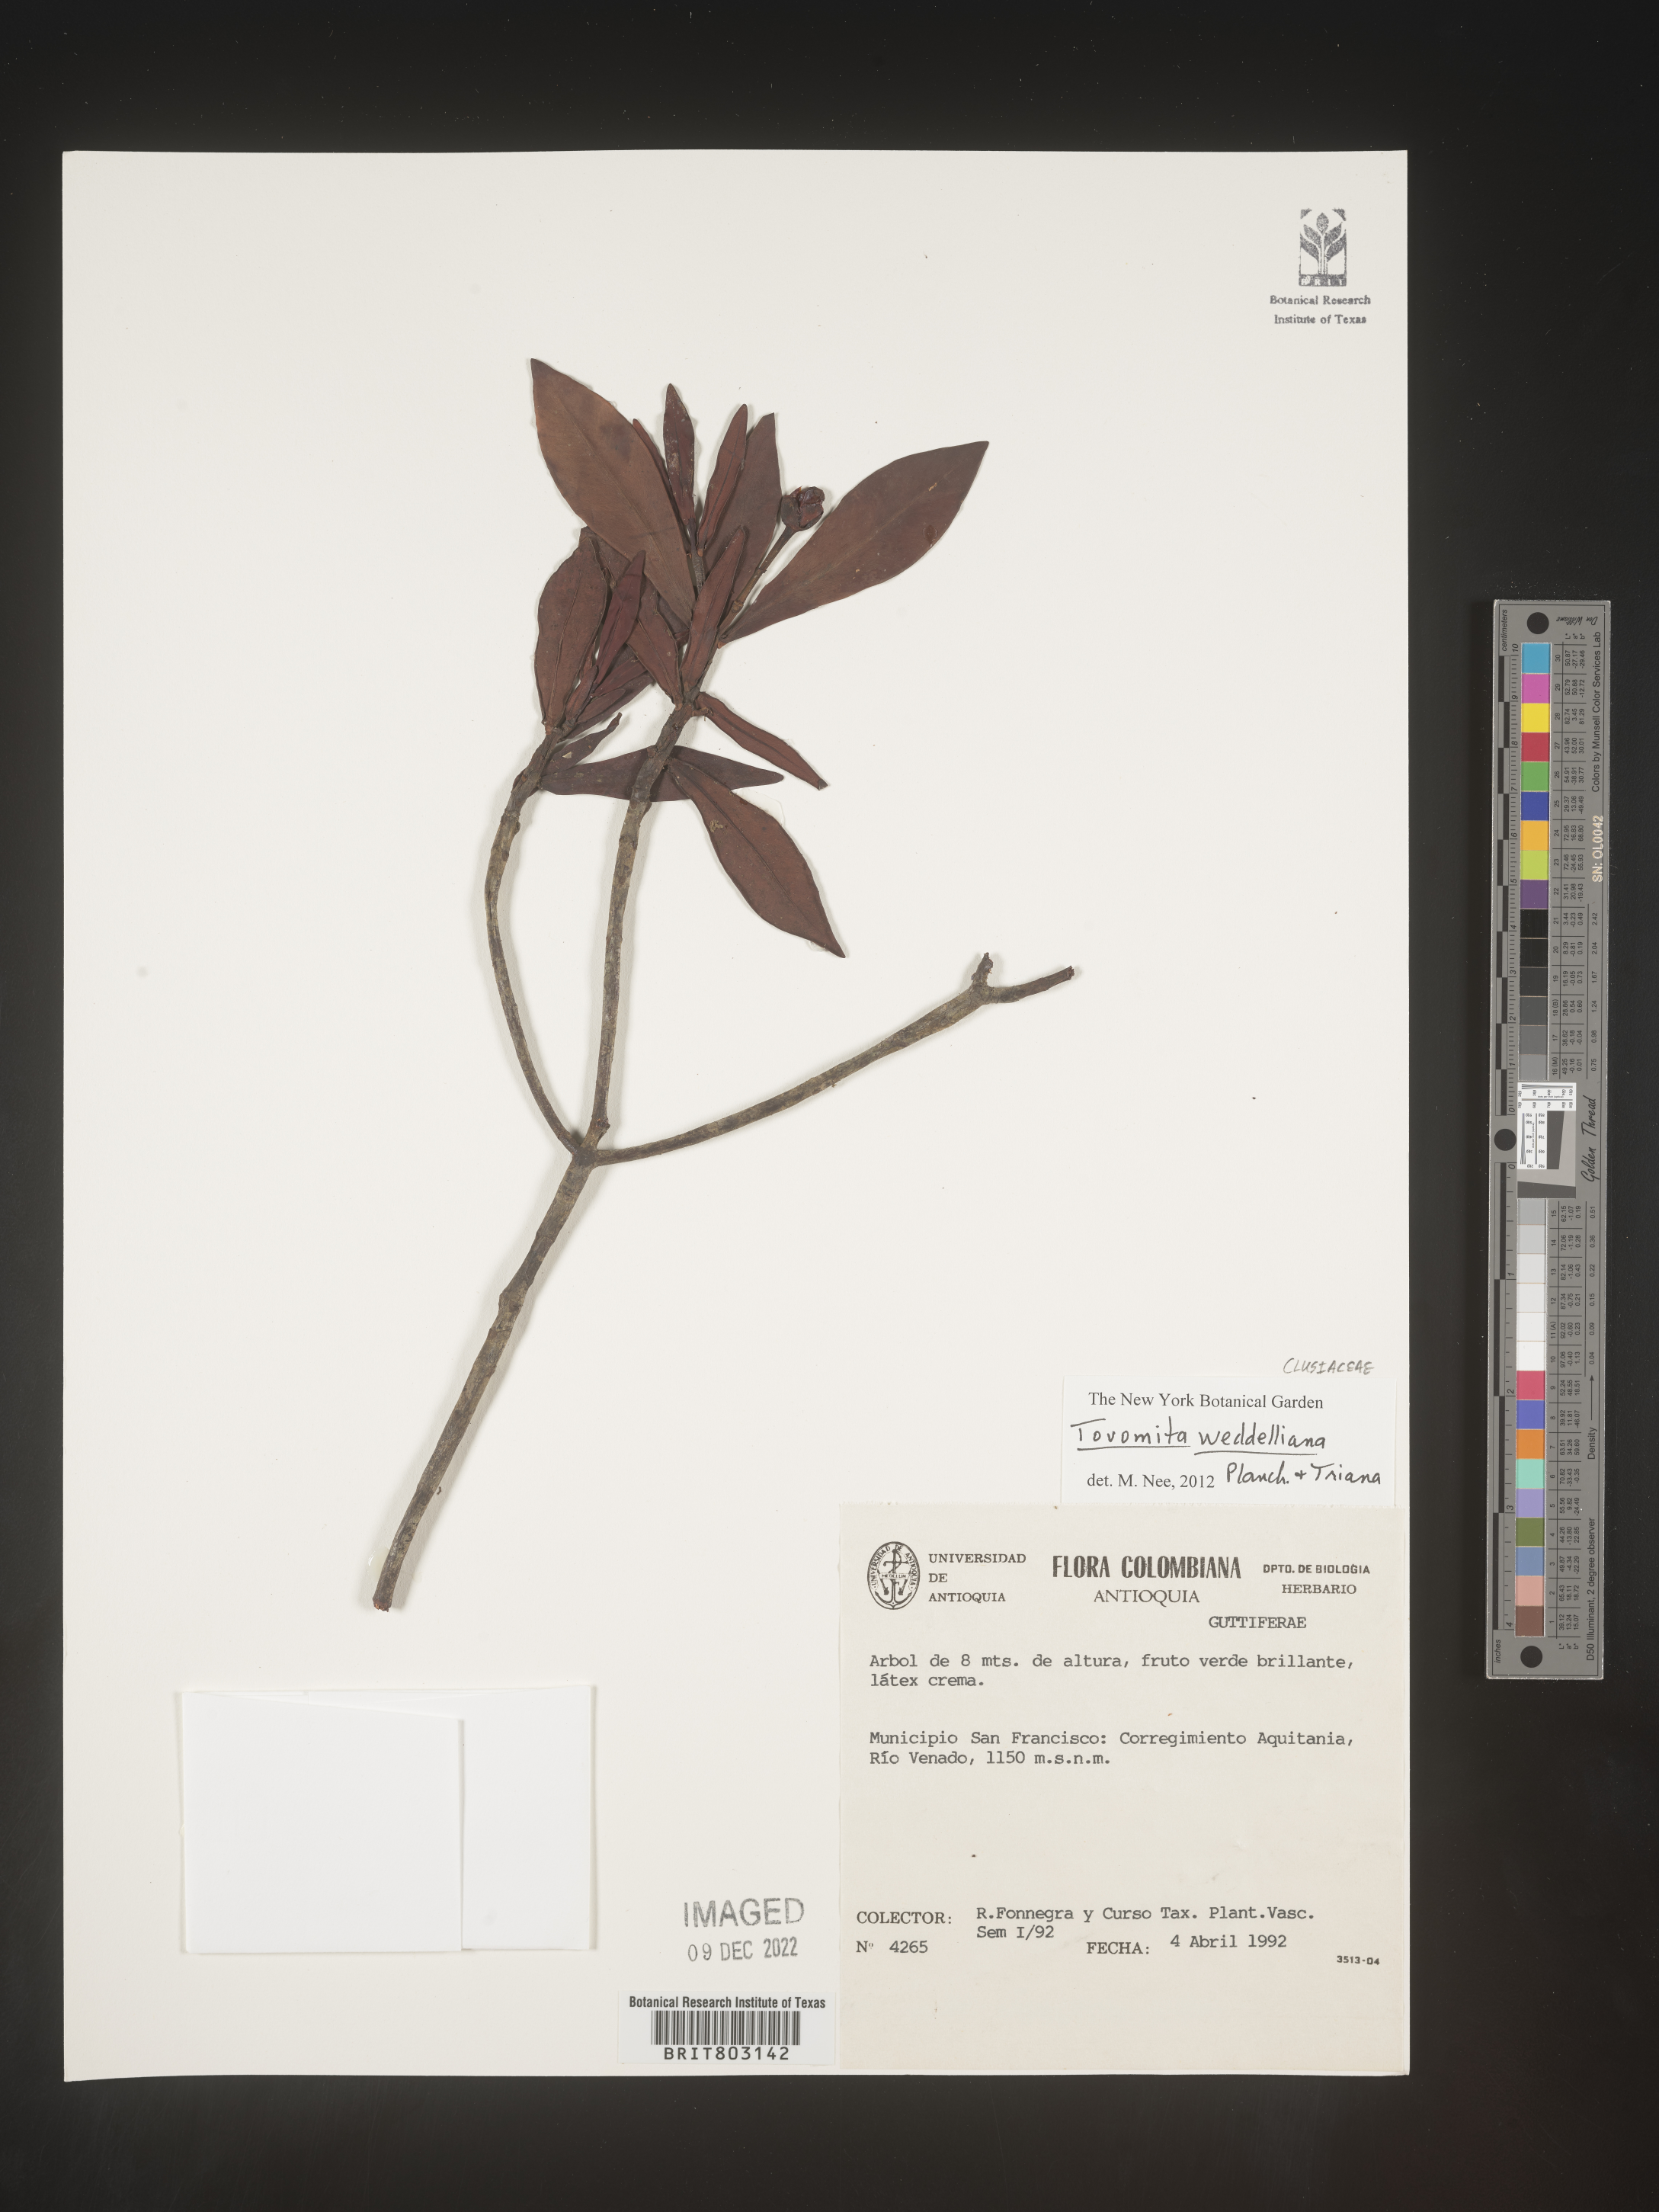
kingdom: Plantae
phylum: Tracheophyta
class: Magnoliopsida
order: Malpighiales
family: Clusiaceae
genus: Arawakia
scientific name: Arawakia weddelliana
